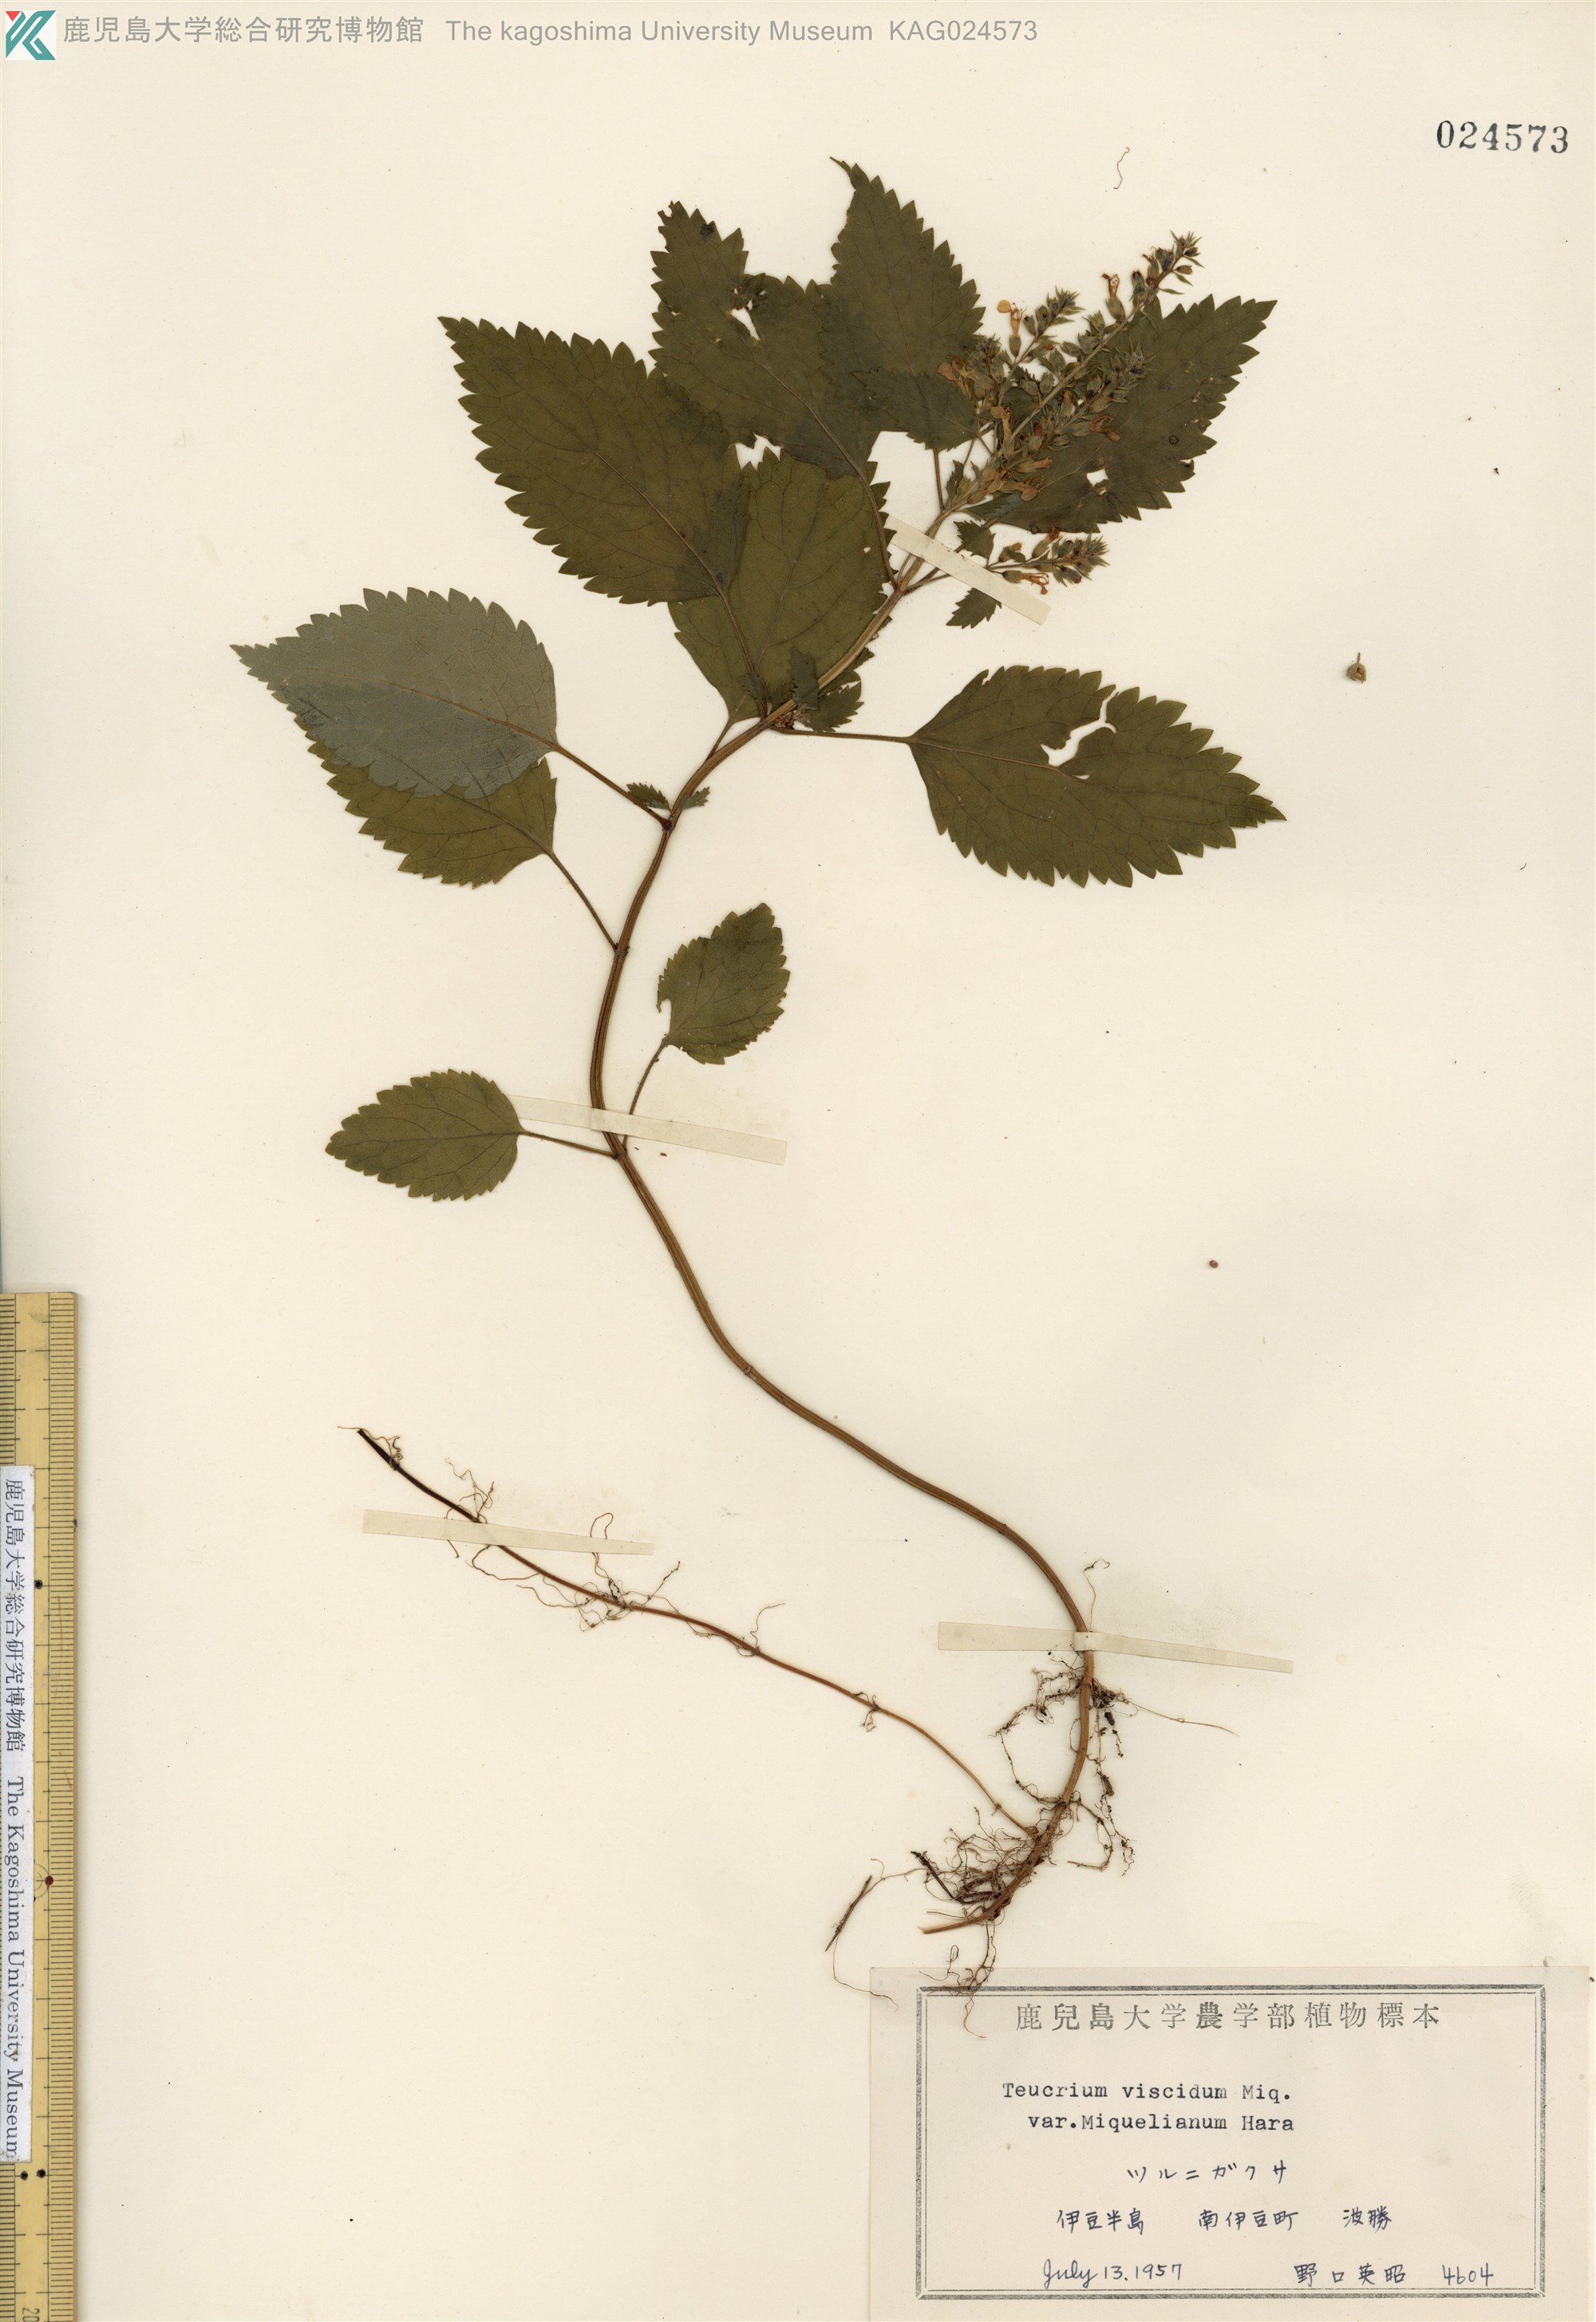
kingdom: Plantae
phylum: Tracheophyta
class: Magnoliopsida
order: Lamiales
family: Lamiaceae
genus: Teucrium
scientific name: Teucrium viscidum
